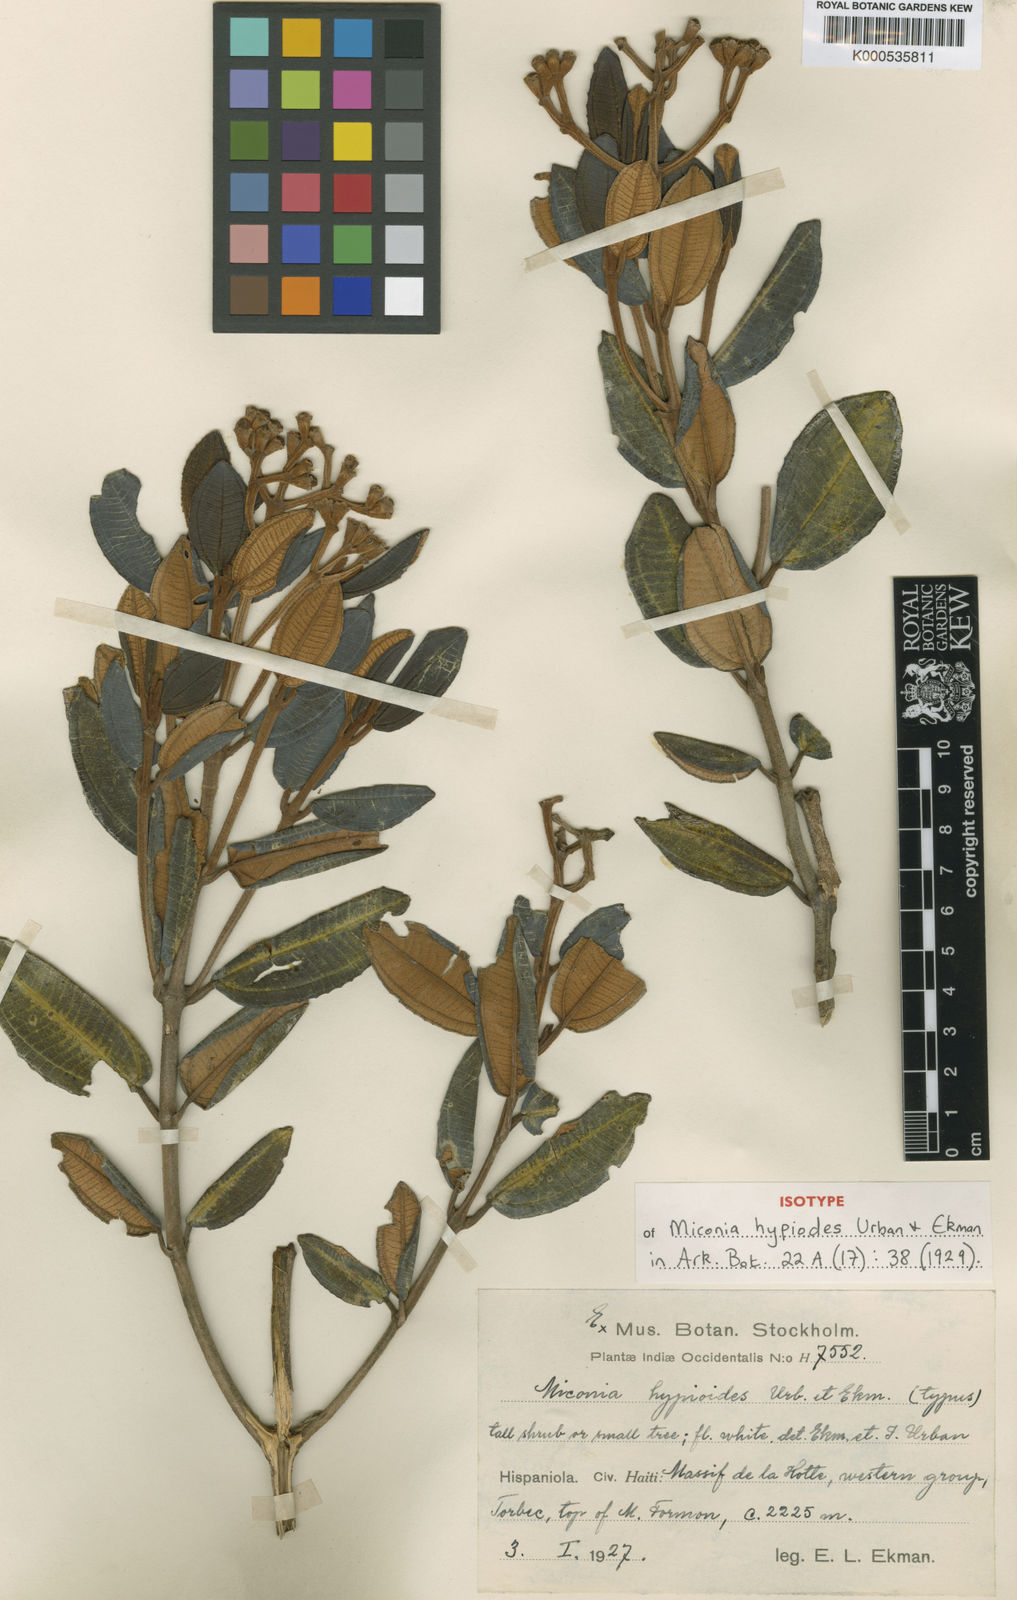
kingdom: Plantae
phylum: Tracheophyta
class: Magnoliopsida
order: Myrtales
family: Melastomataceae
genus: Miconia
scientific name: Miconia hypiodes
